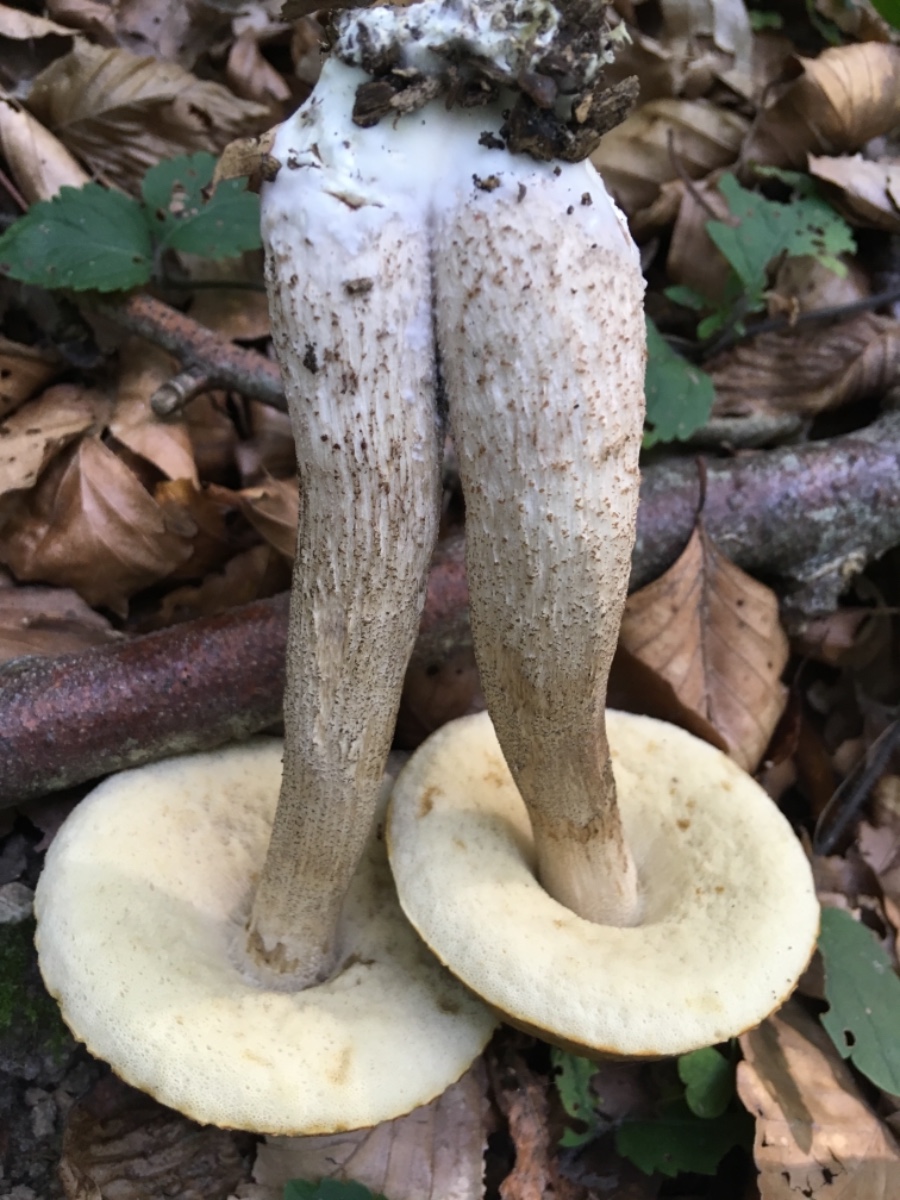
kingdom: Fungi
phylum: Basidiomycota
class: Agaricomycetes
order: Boletales
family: Boletaceae
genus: Leccinellum
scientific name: Leccinellum pseudoscabrum
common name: avnbøg-skælrørhat
